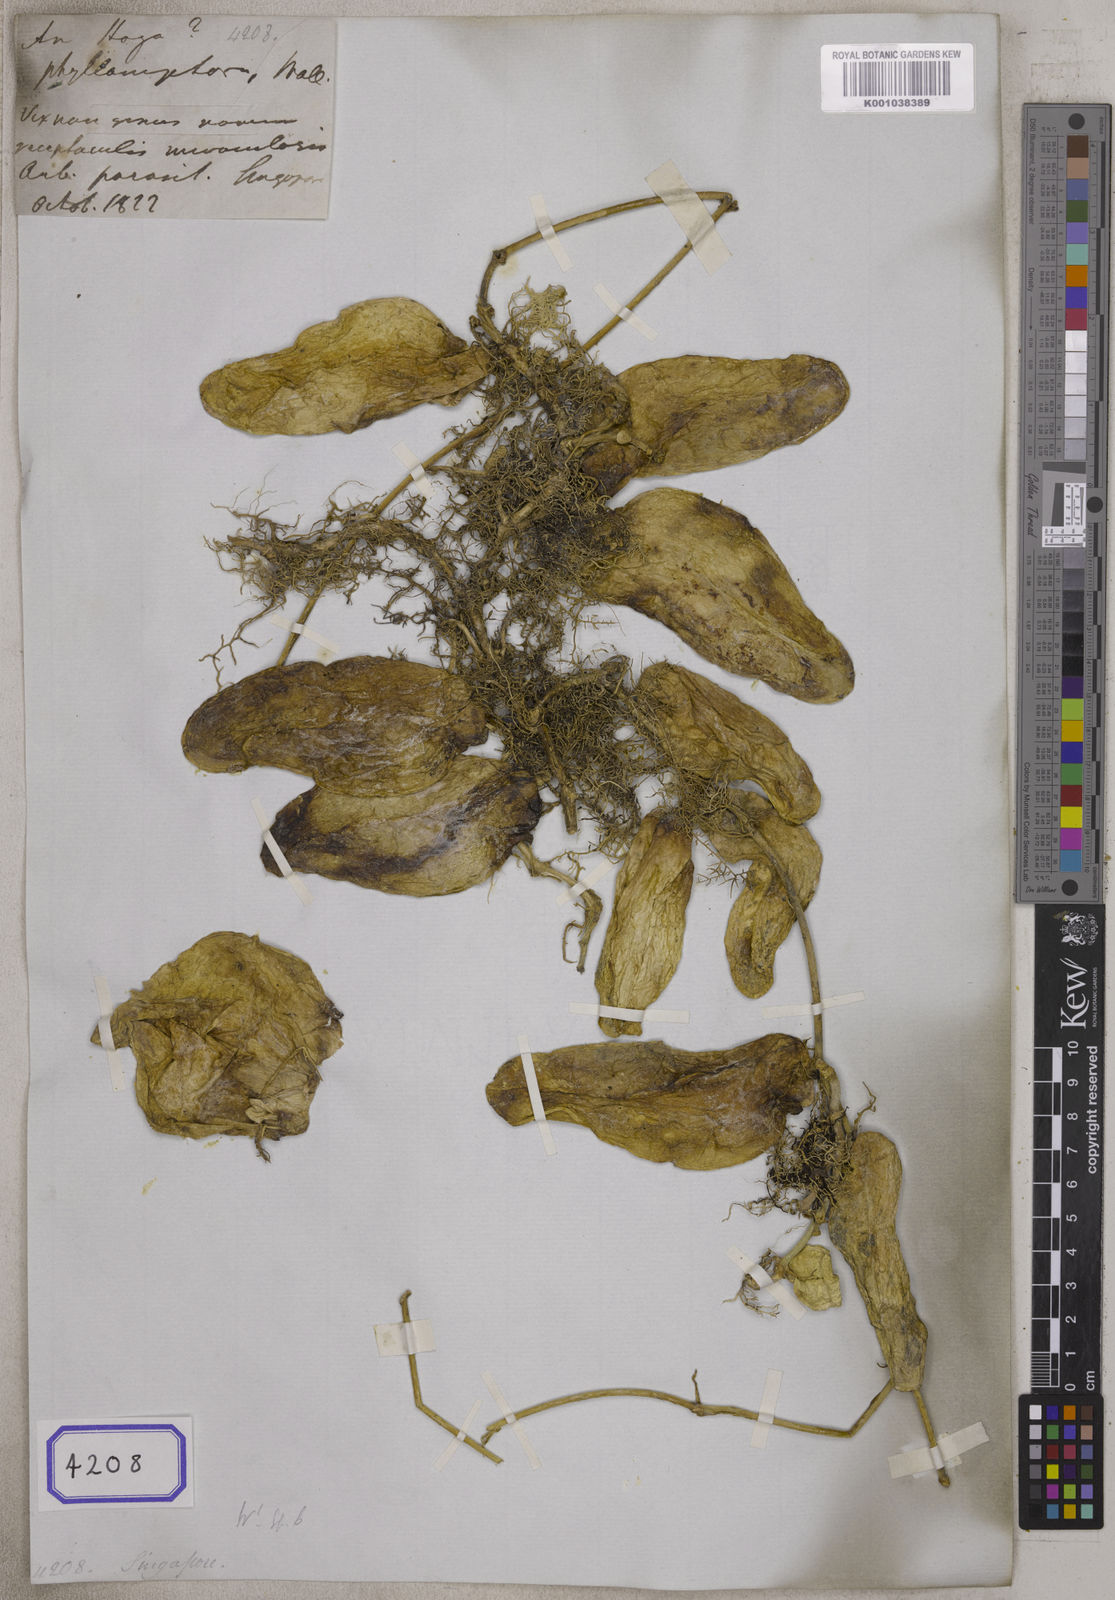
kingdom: Plantae
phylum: Tracheophyta
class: Magnoliopsida
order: Gentianales
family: Apocynaceae
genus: Dischidia
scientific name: Dischidia major
